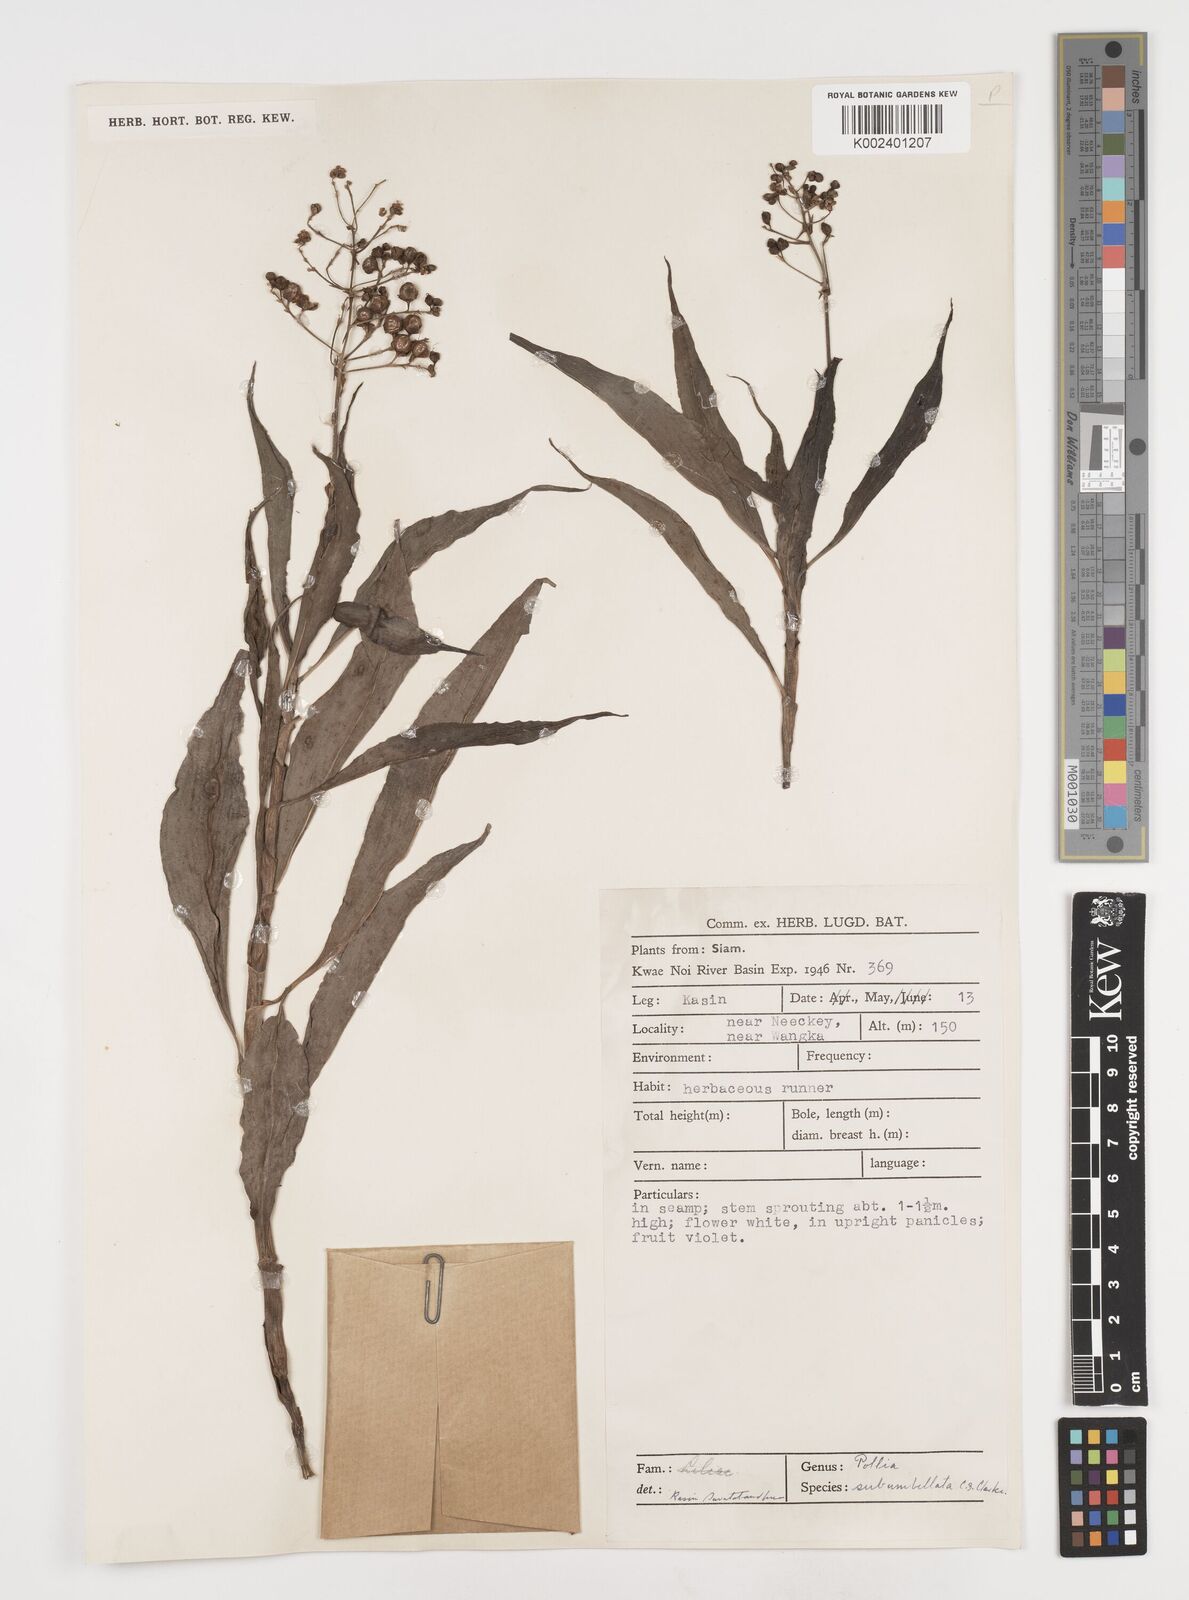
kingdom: Plantae
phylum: Tracheophyta
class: Liliopsida
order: Commelinales
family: Commelinaceae
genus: Pollia
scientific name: Pollia secundiflora
